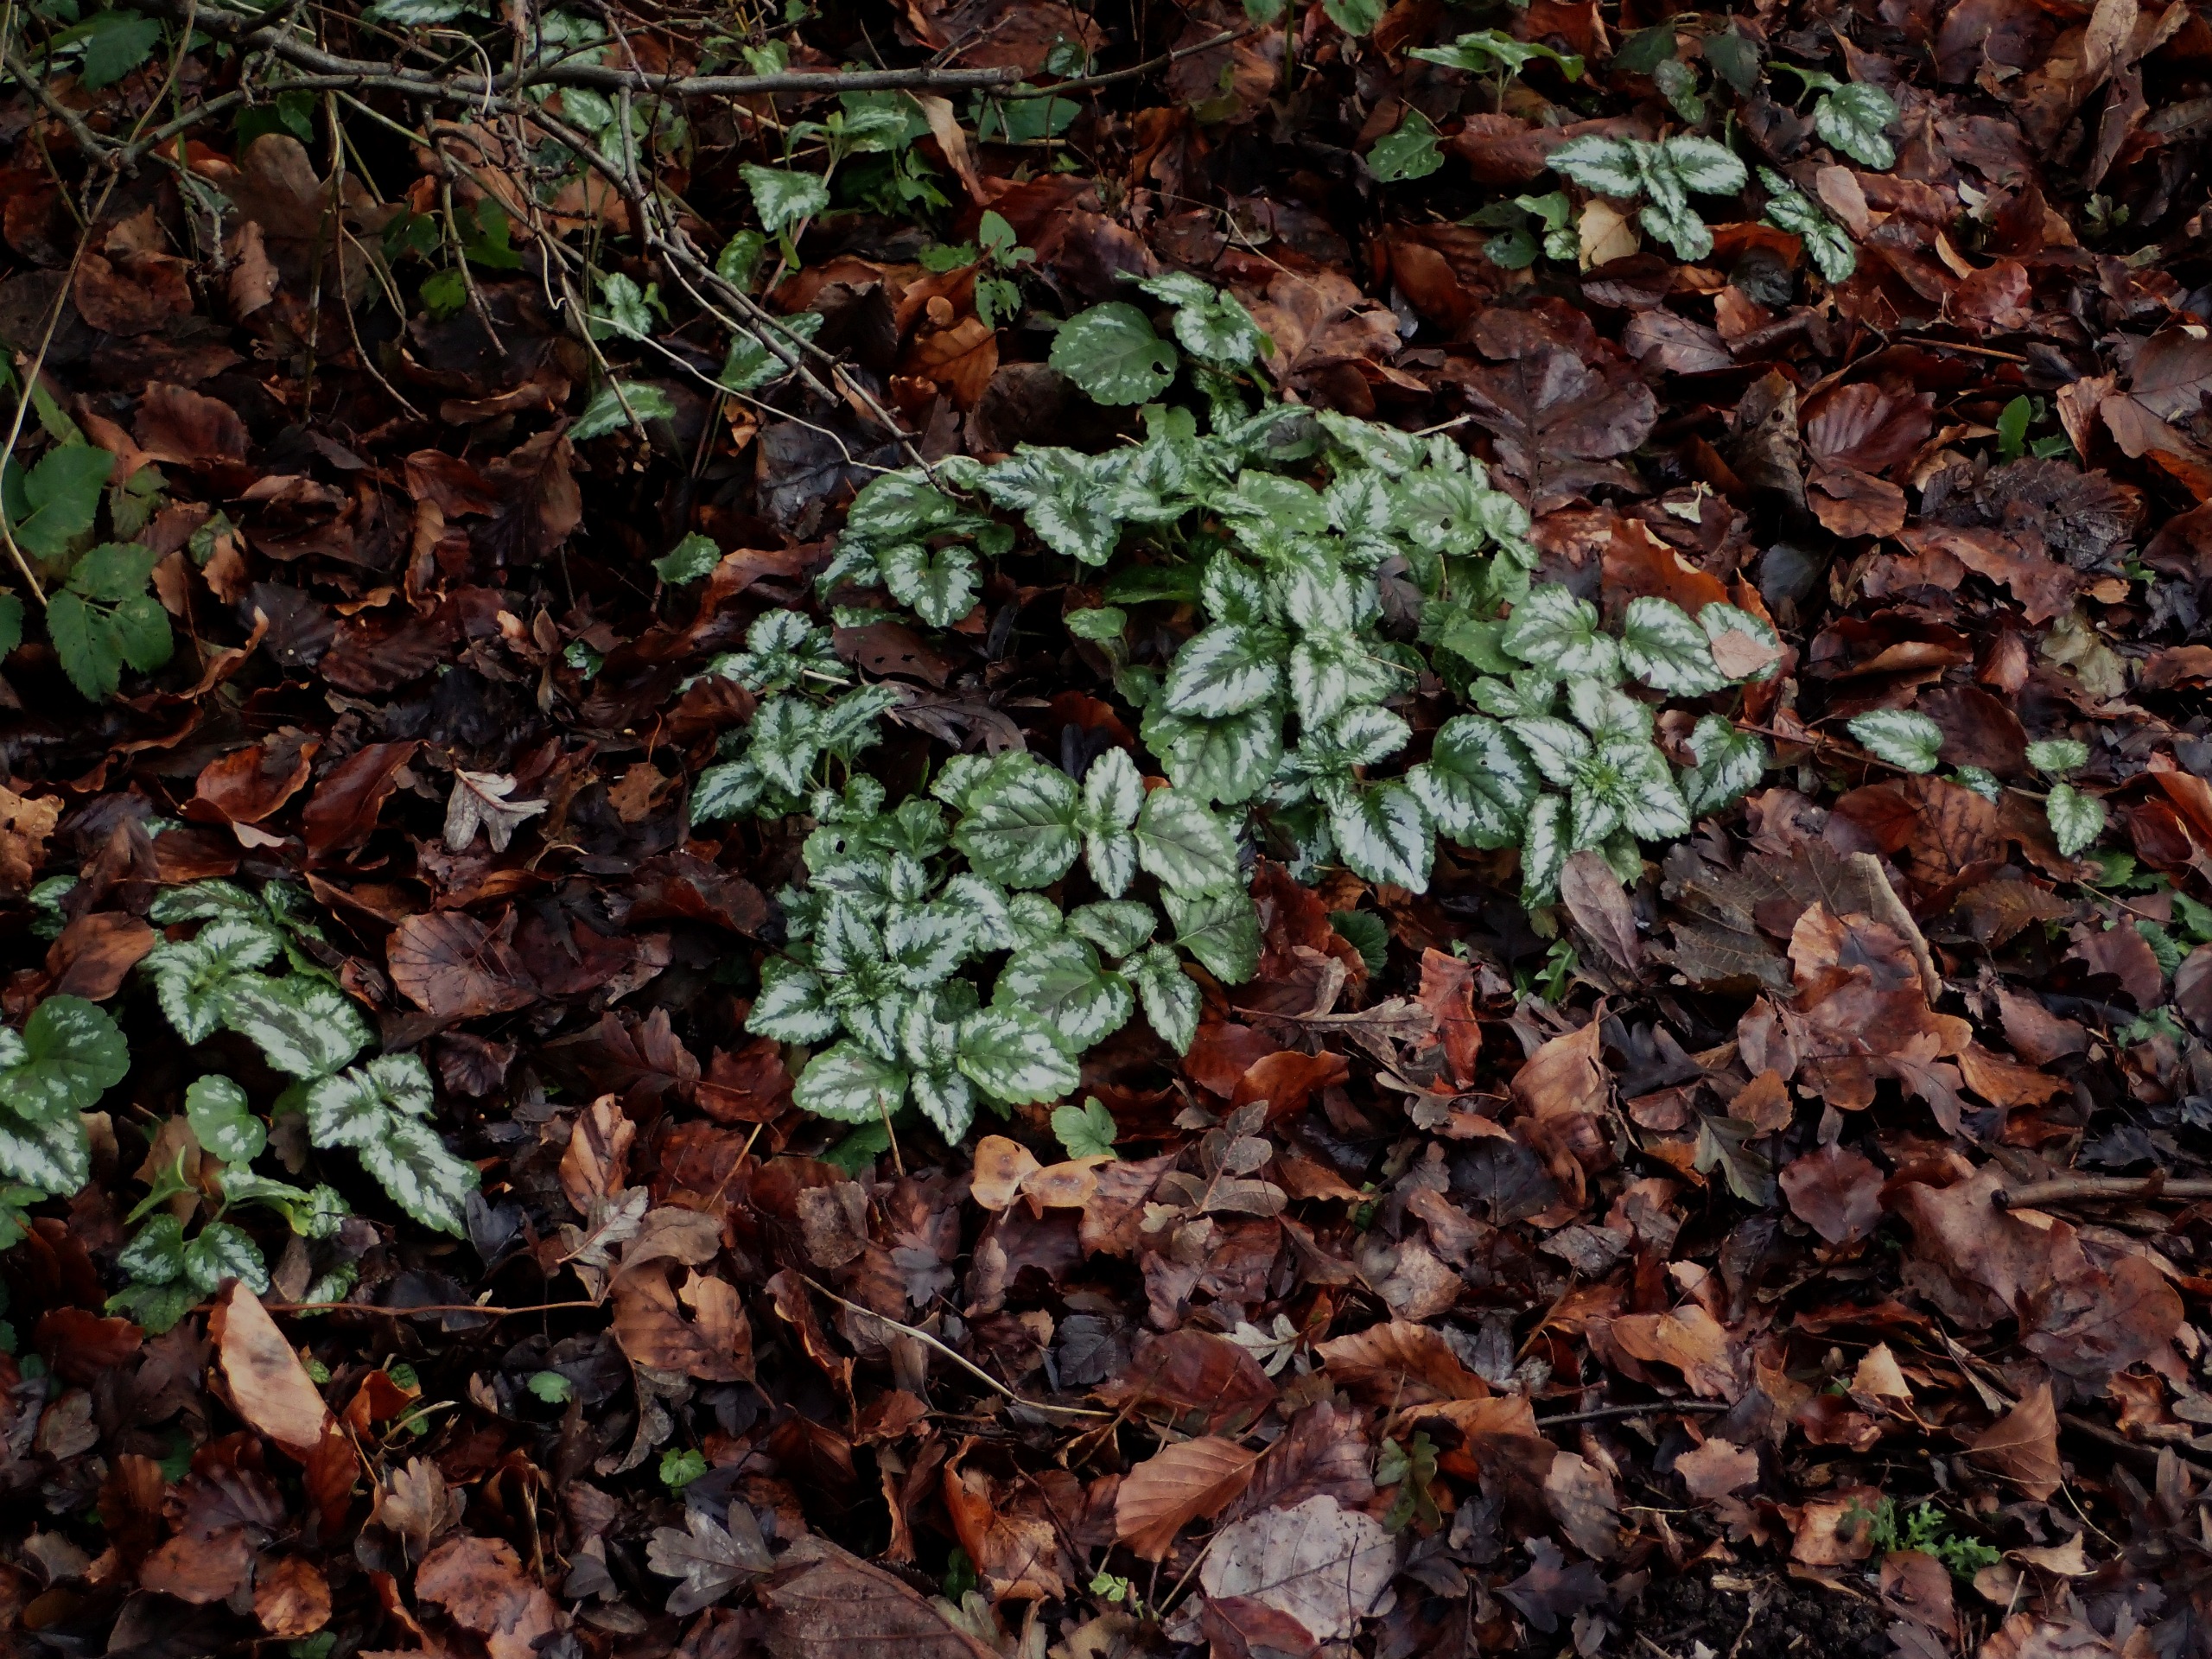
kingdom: Plantae
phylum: Tracheophyta
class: Magnoliopsida
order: Lamiales
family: Lamiaceae
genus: Lamium
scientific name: Lamium galeobdolon
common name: Have-guldnælde
